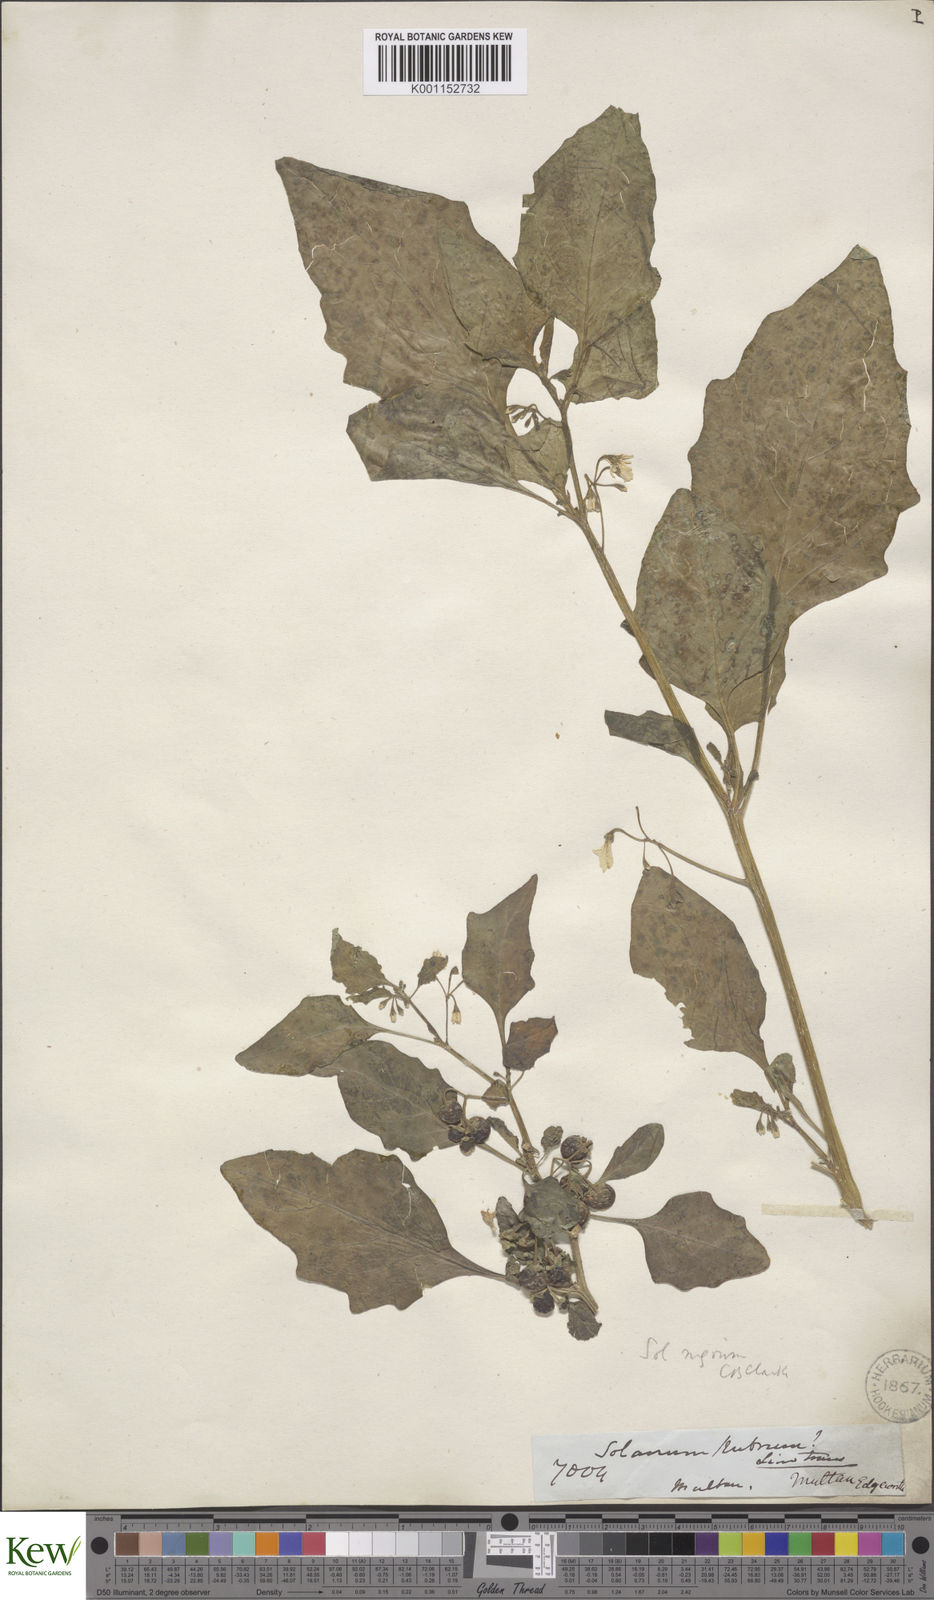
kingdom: Plantae
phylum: Tracheophyta
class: Magnoliopsida
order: Solanales
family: Solanaceae
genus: Solanum
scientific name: Solanum nigrum
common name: Black nightshade
